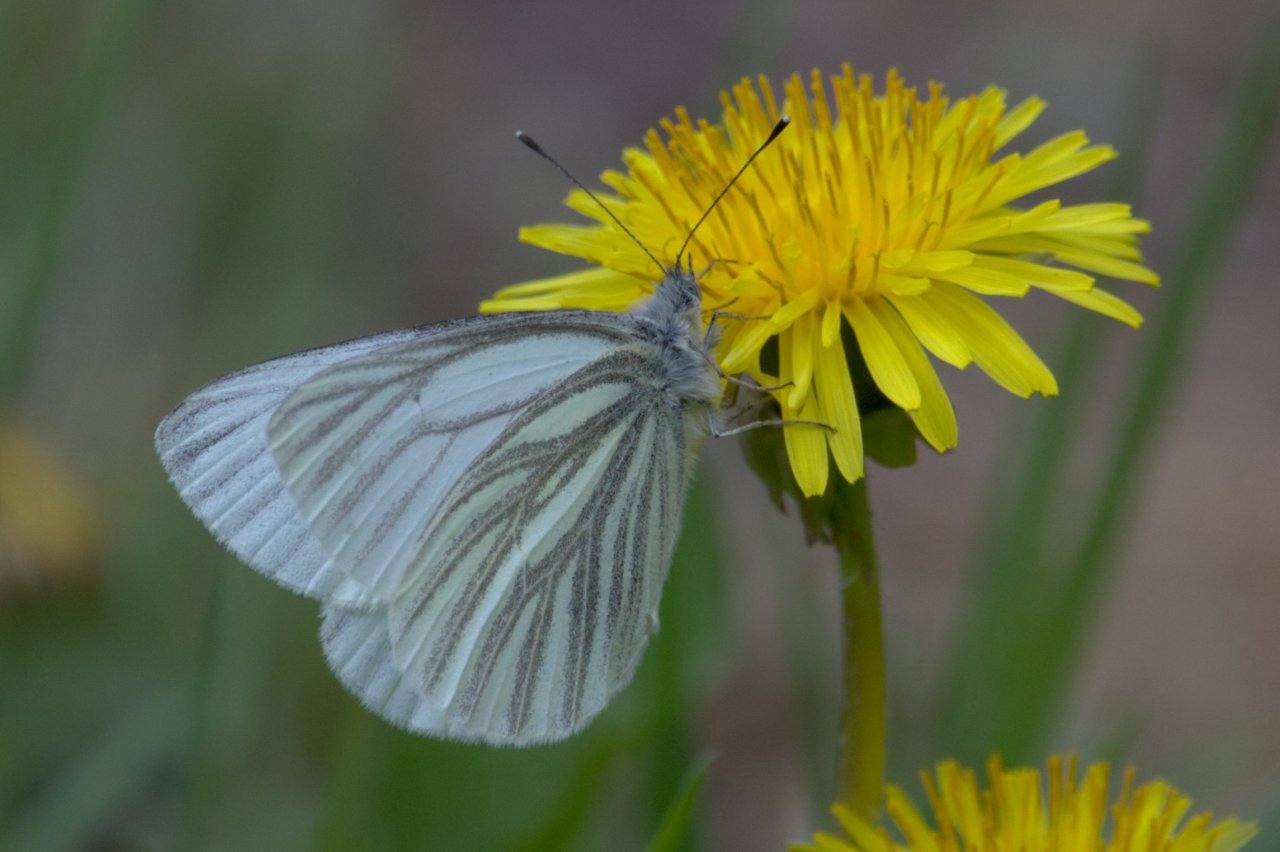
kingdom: Animalia
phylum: Arthropoda
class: Insecta
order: Lepidoptera
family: Pieridae
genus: Pieris
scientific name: Pieris marginalis
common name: Margined White
